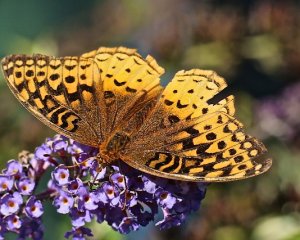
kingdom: Animalia
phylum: Arthropoda
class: Insecta
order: Lepidoptera
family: Nymphalidae
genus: Speyeria
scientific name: Speyeria cybele
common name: Great Spangled Fritillary
